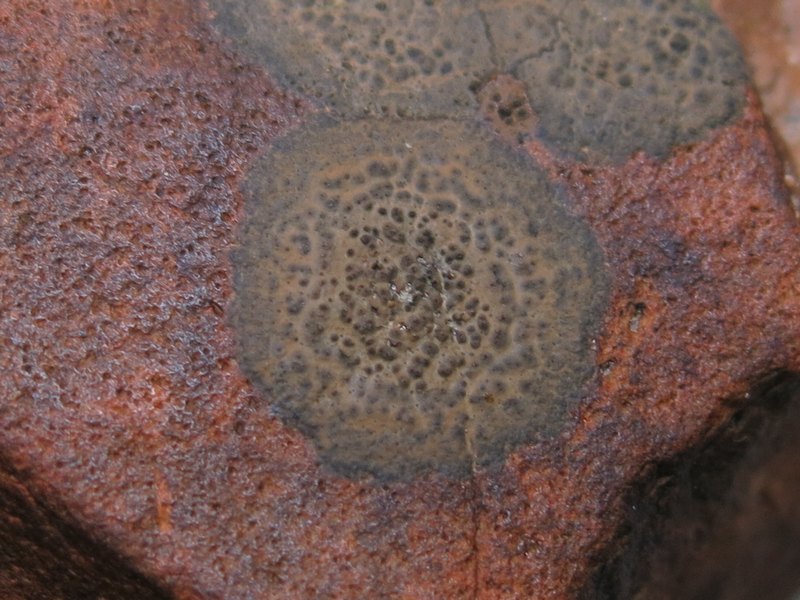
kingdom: Fungi
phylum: Ascomycota
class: Eurotiomycetes
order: Verrucariales
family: Verrucariaceae
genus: Verrucaria
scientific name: Verrucaria praetermissa
